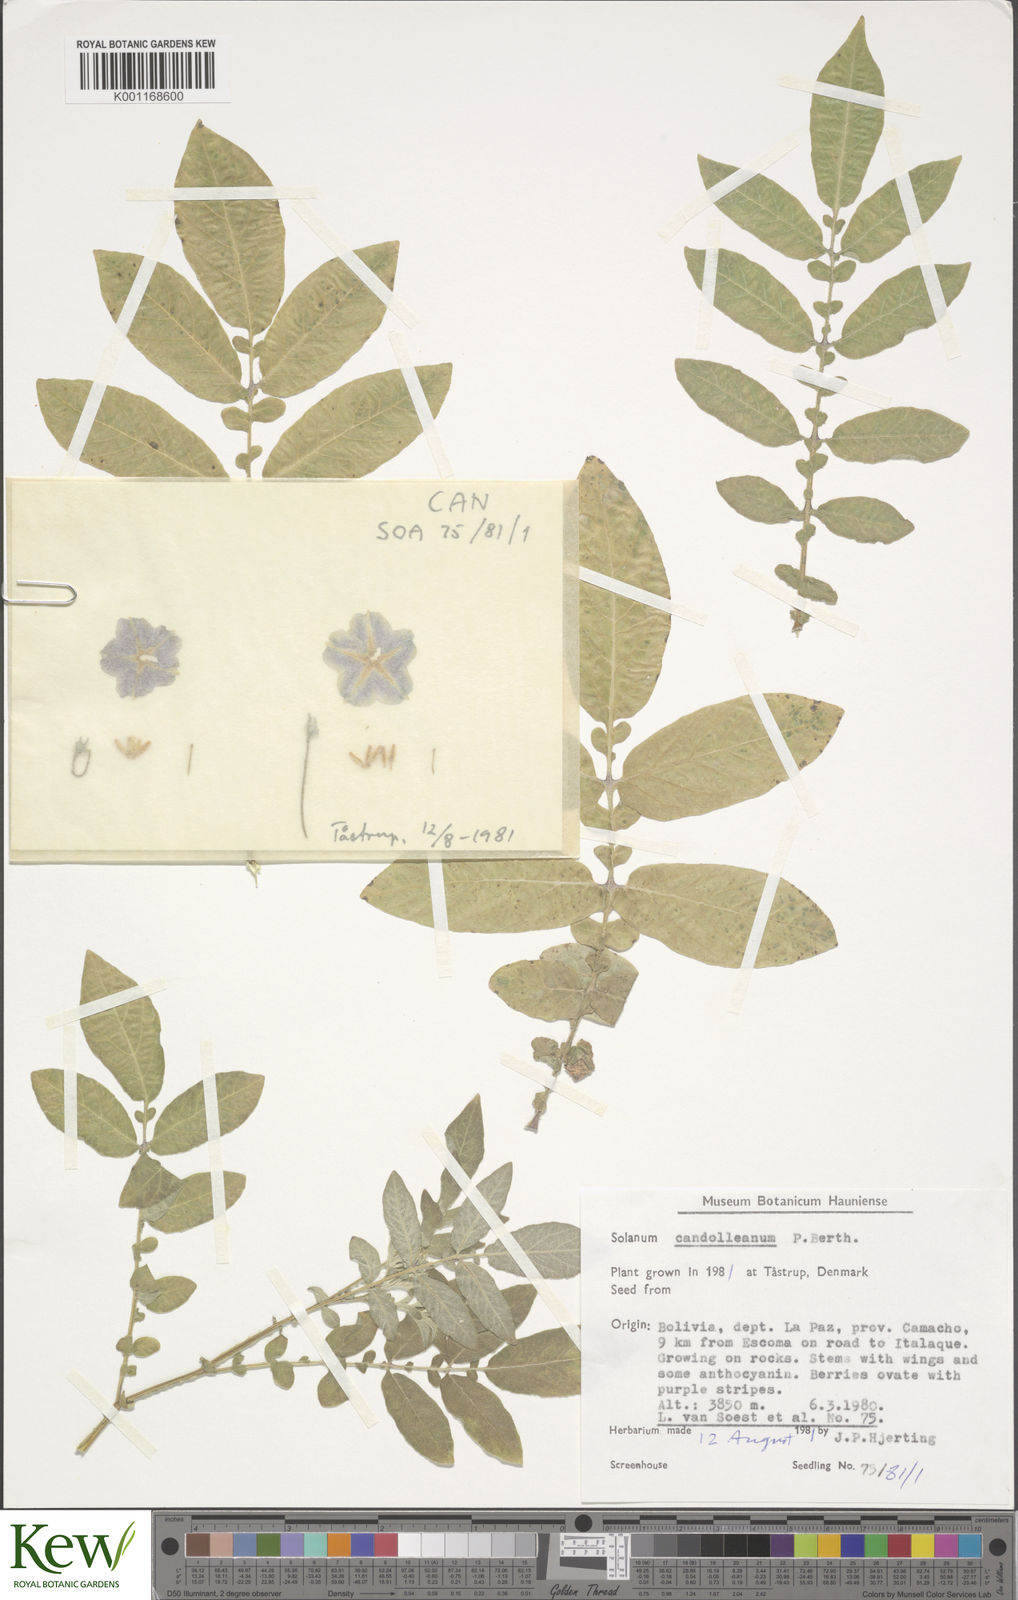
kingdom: Plantae
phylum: Tracheophyta
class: Magnoliopsida
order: Solanales
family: Solanaceae
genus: Solanum
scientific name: Solanum candolleanum
